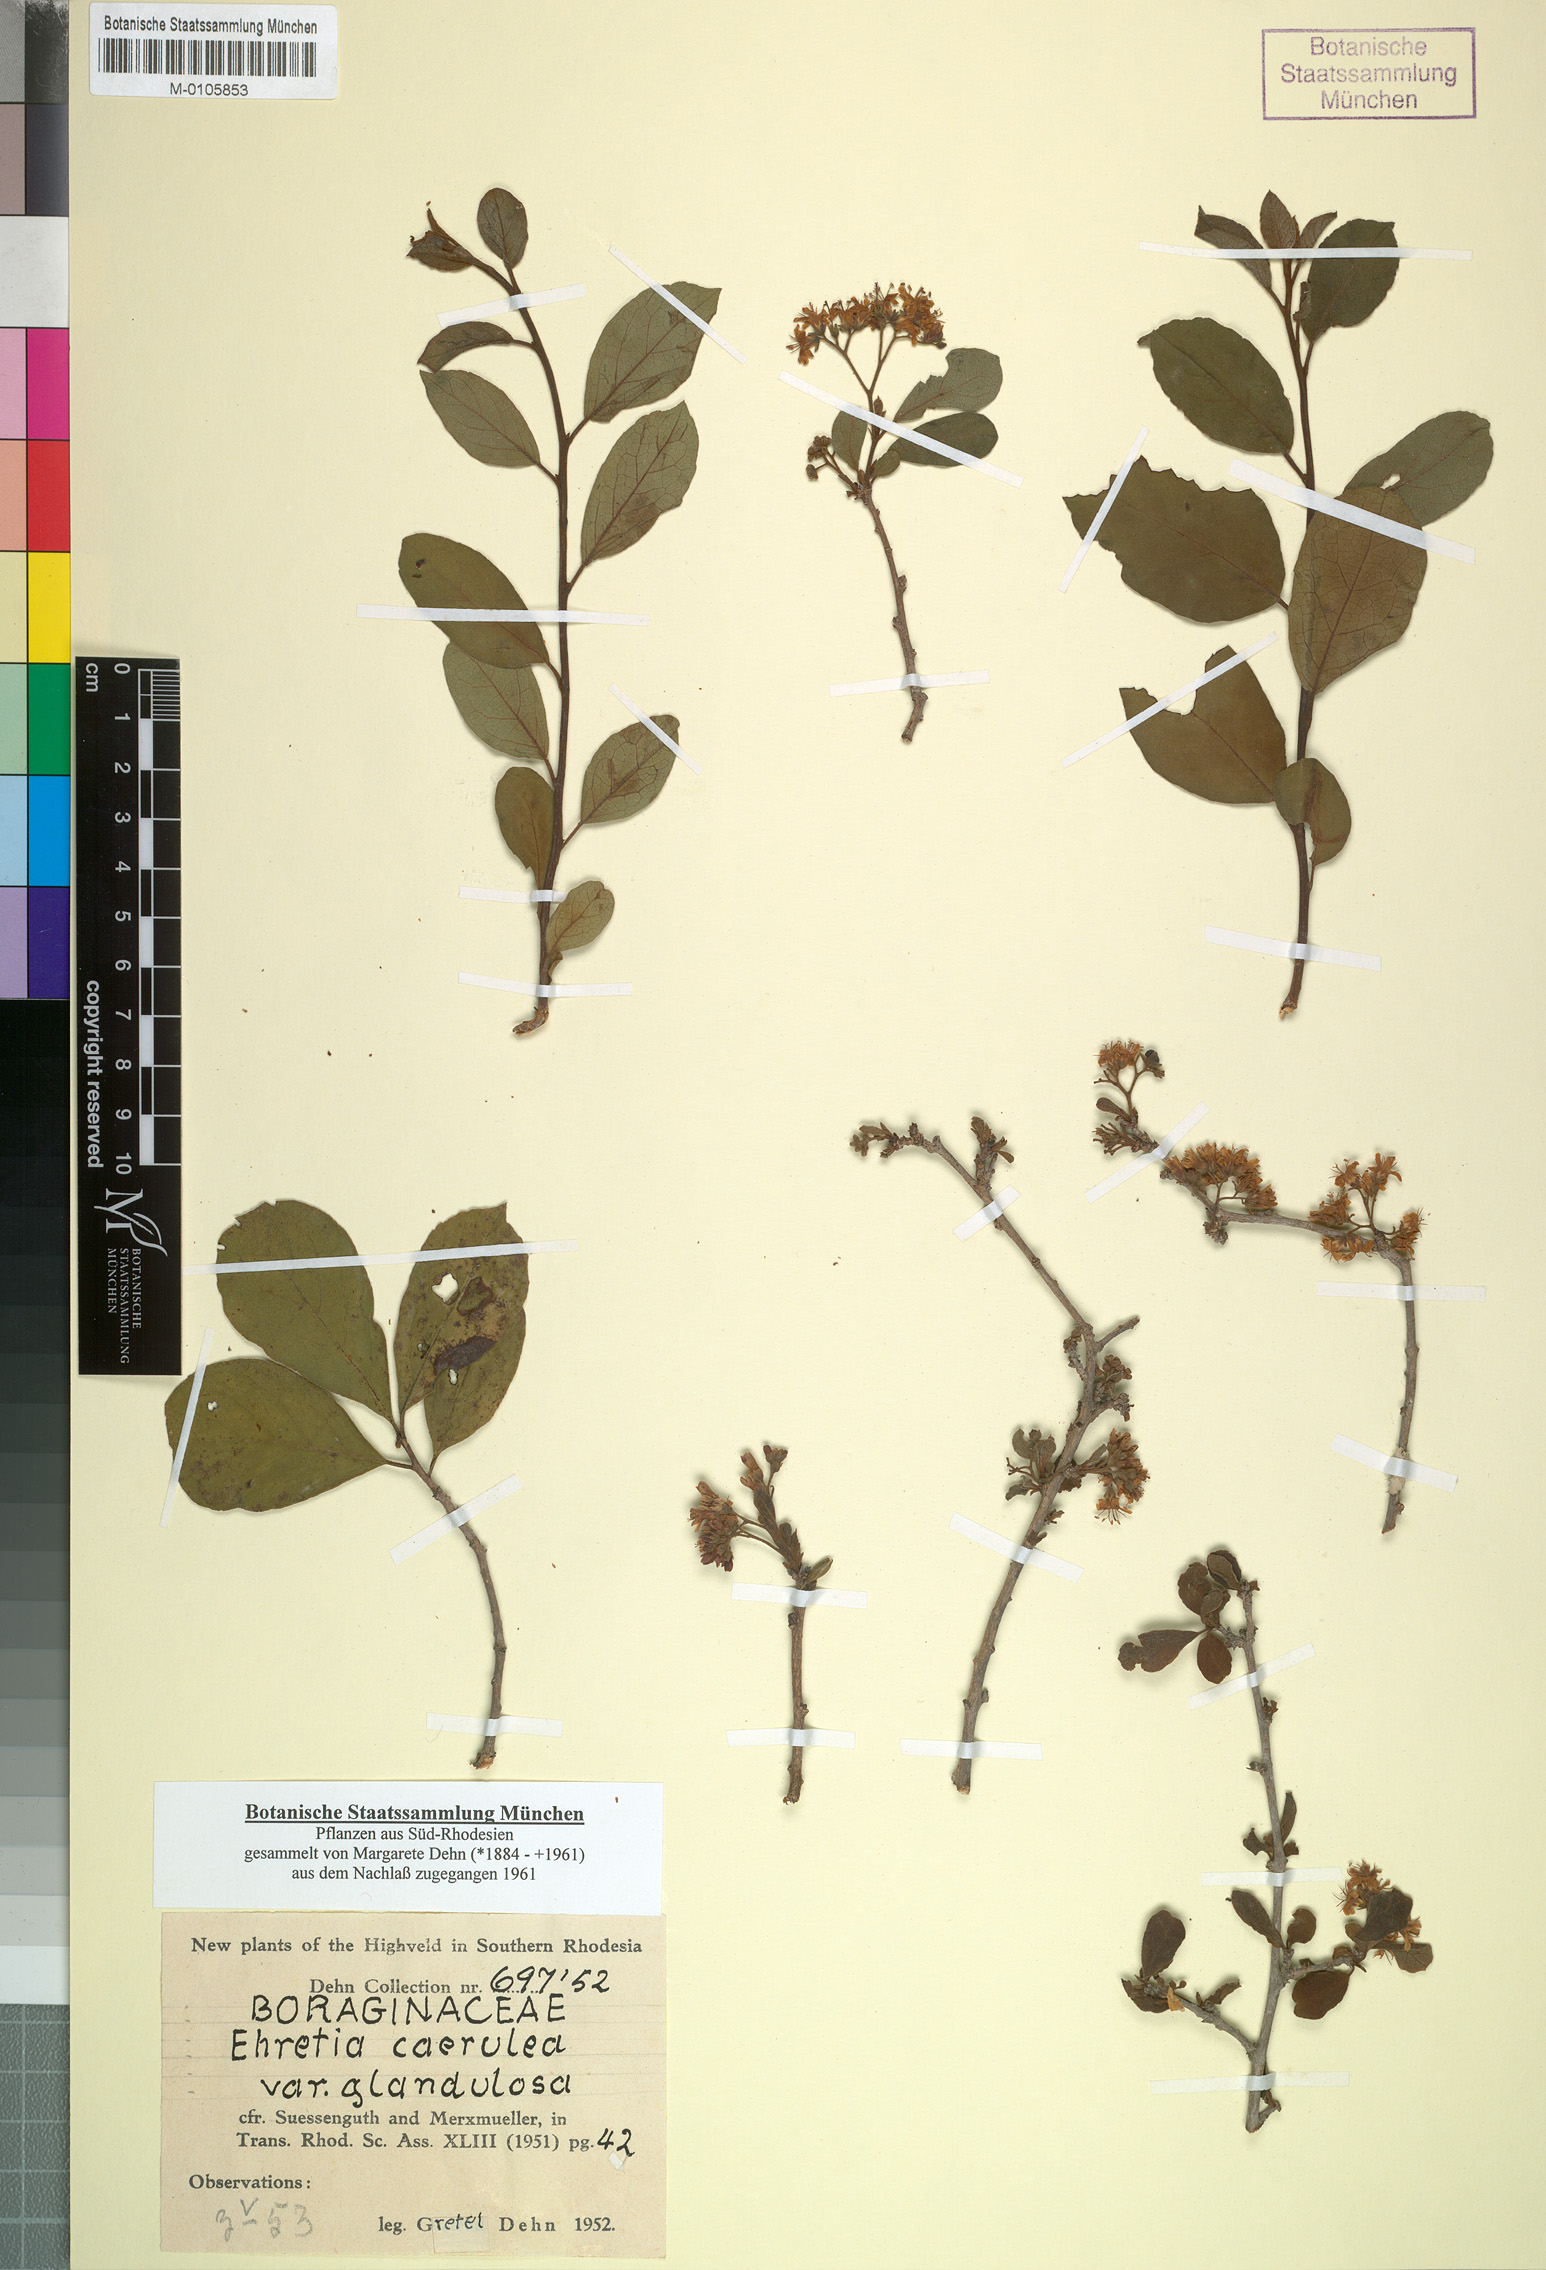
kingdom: Plantae
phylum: Tracheophyta
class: Magnoliopsida
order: Boraginales
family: Ehretiaceae
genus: Ehretia
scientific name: Ehretia obtusifolia
